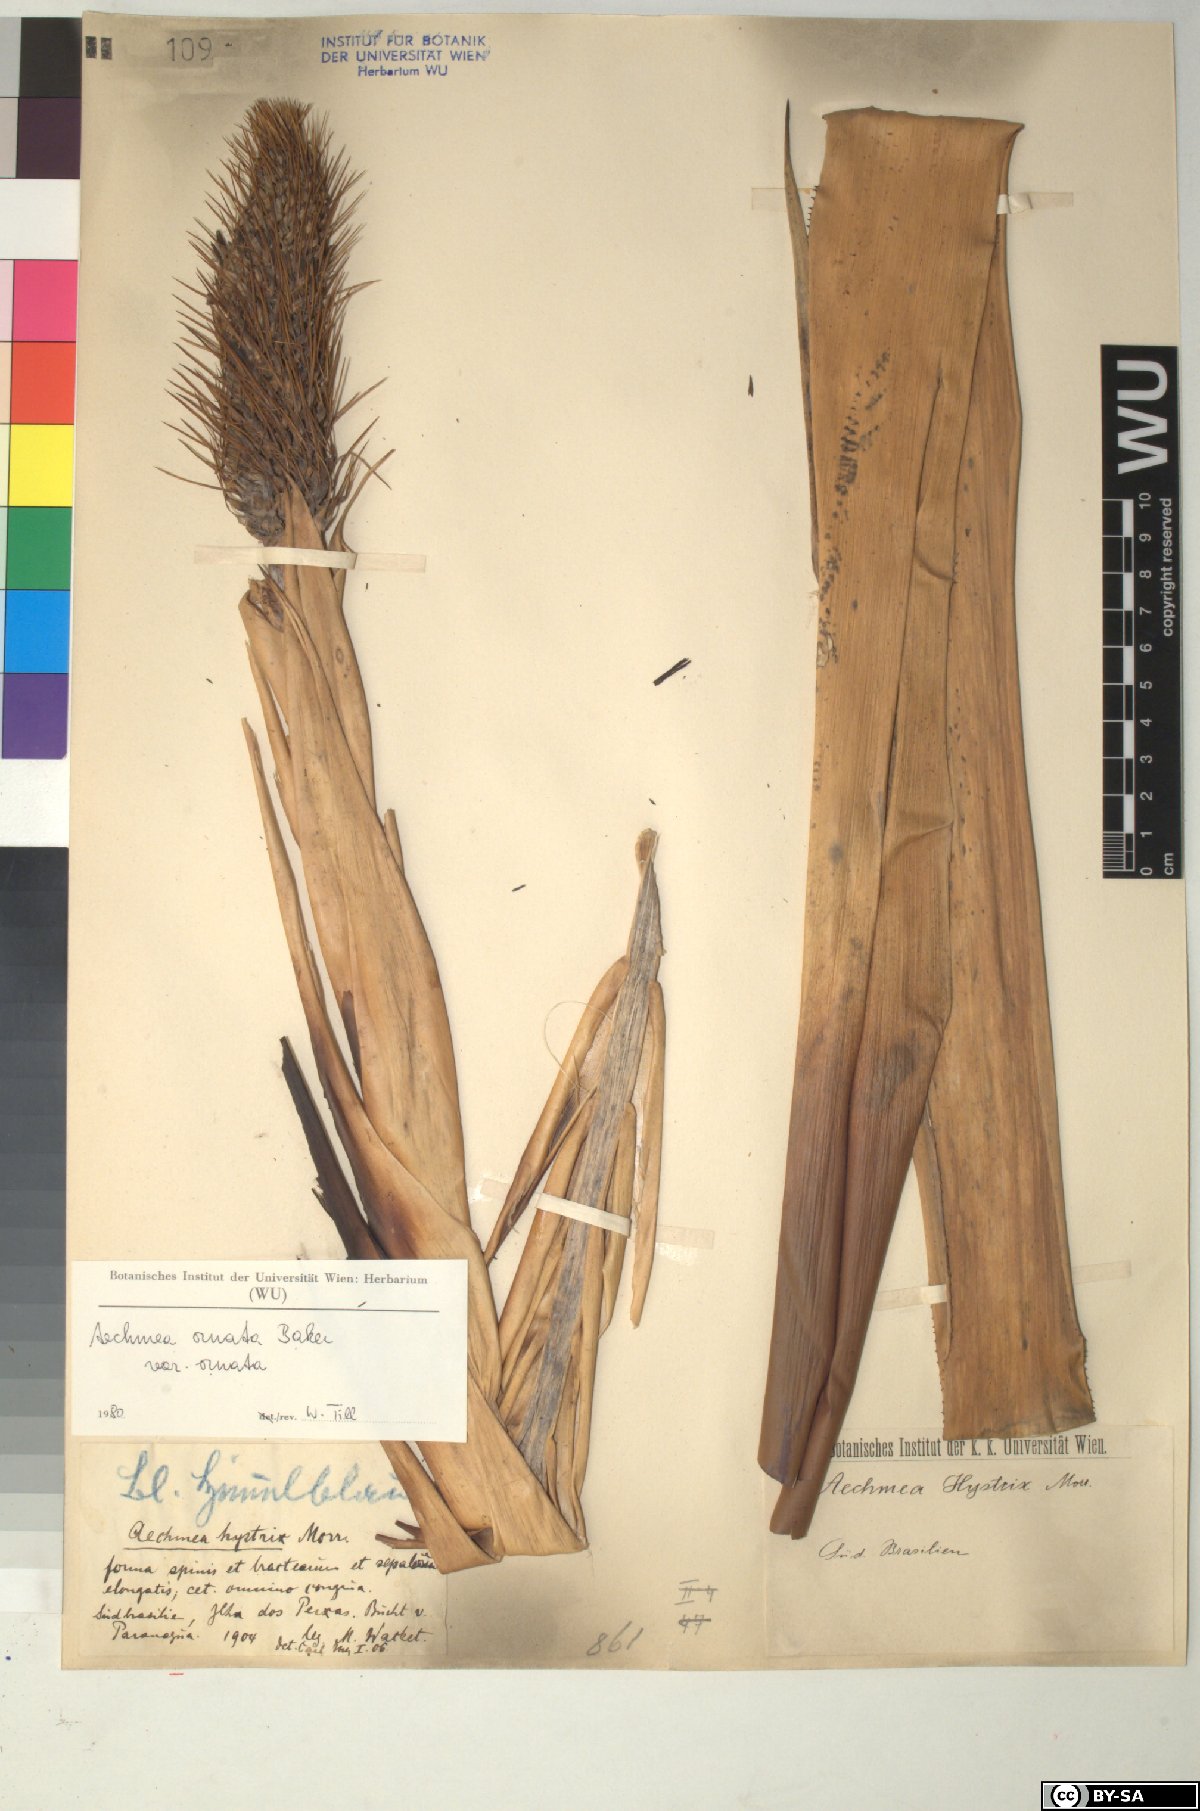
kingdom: Plantae
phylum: Tracheophyta
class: Liliopsida
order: Poales
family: Bromeliaceae
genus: Aechmea
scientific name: Aechmea
